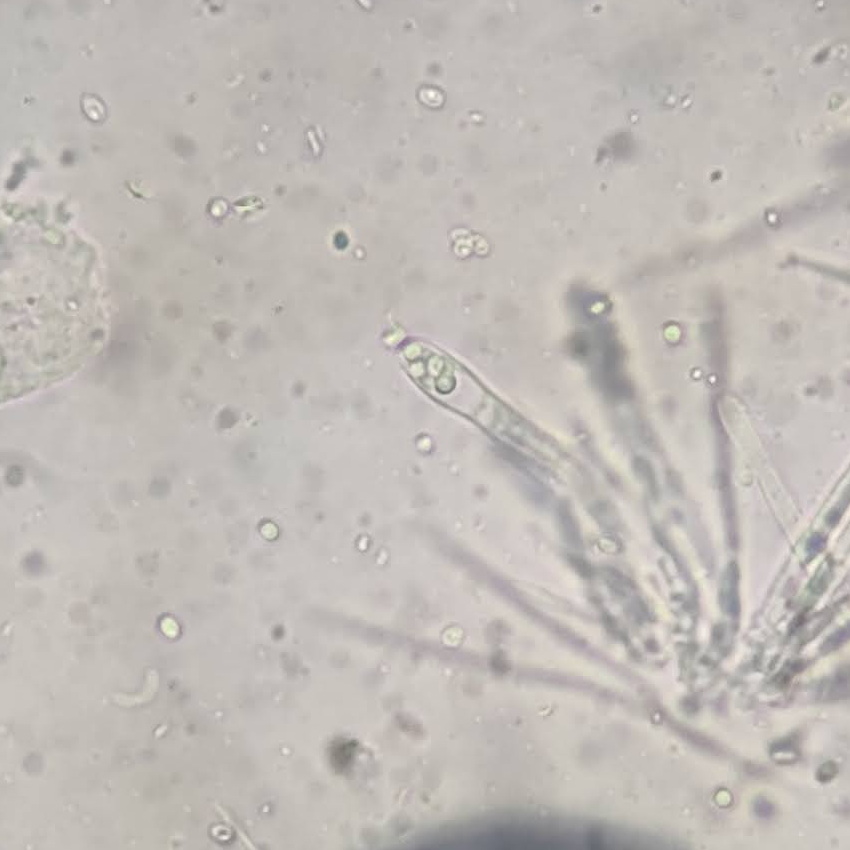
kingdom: Fungi
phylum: Ascomycota
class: Leotiomycetes
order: Helotiales
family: Lachnaceae
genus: Lachnellula
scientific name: Lachnellula calycina
